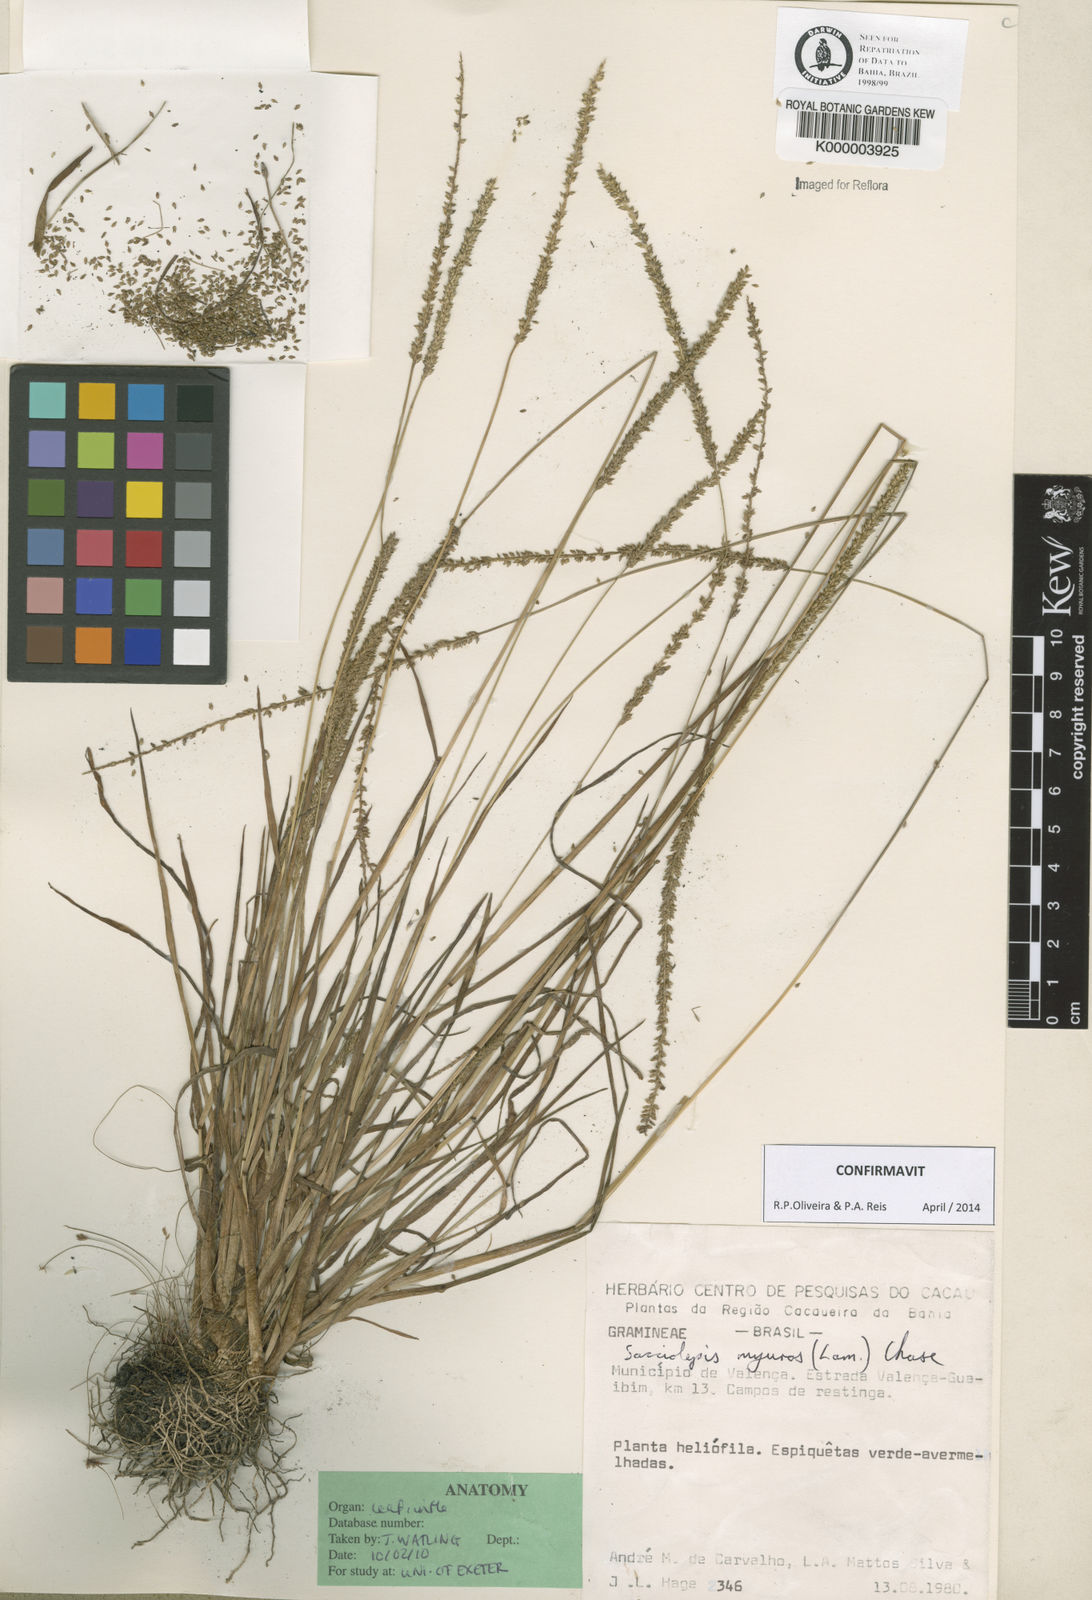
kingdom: Plantae
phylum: Tracheophyta
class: Liliopsida
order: Poales
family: Poaceae
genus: Sacciolepis
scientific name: Sacciolepis myuros
